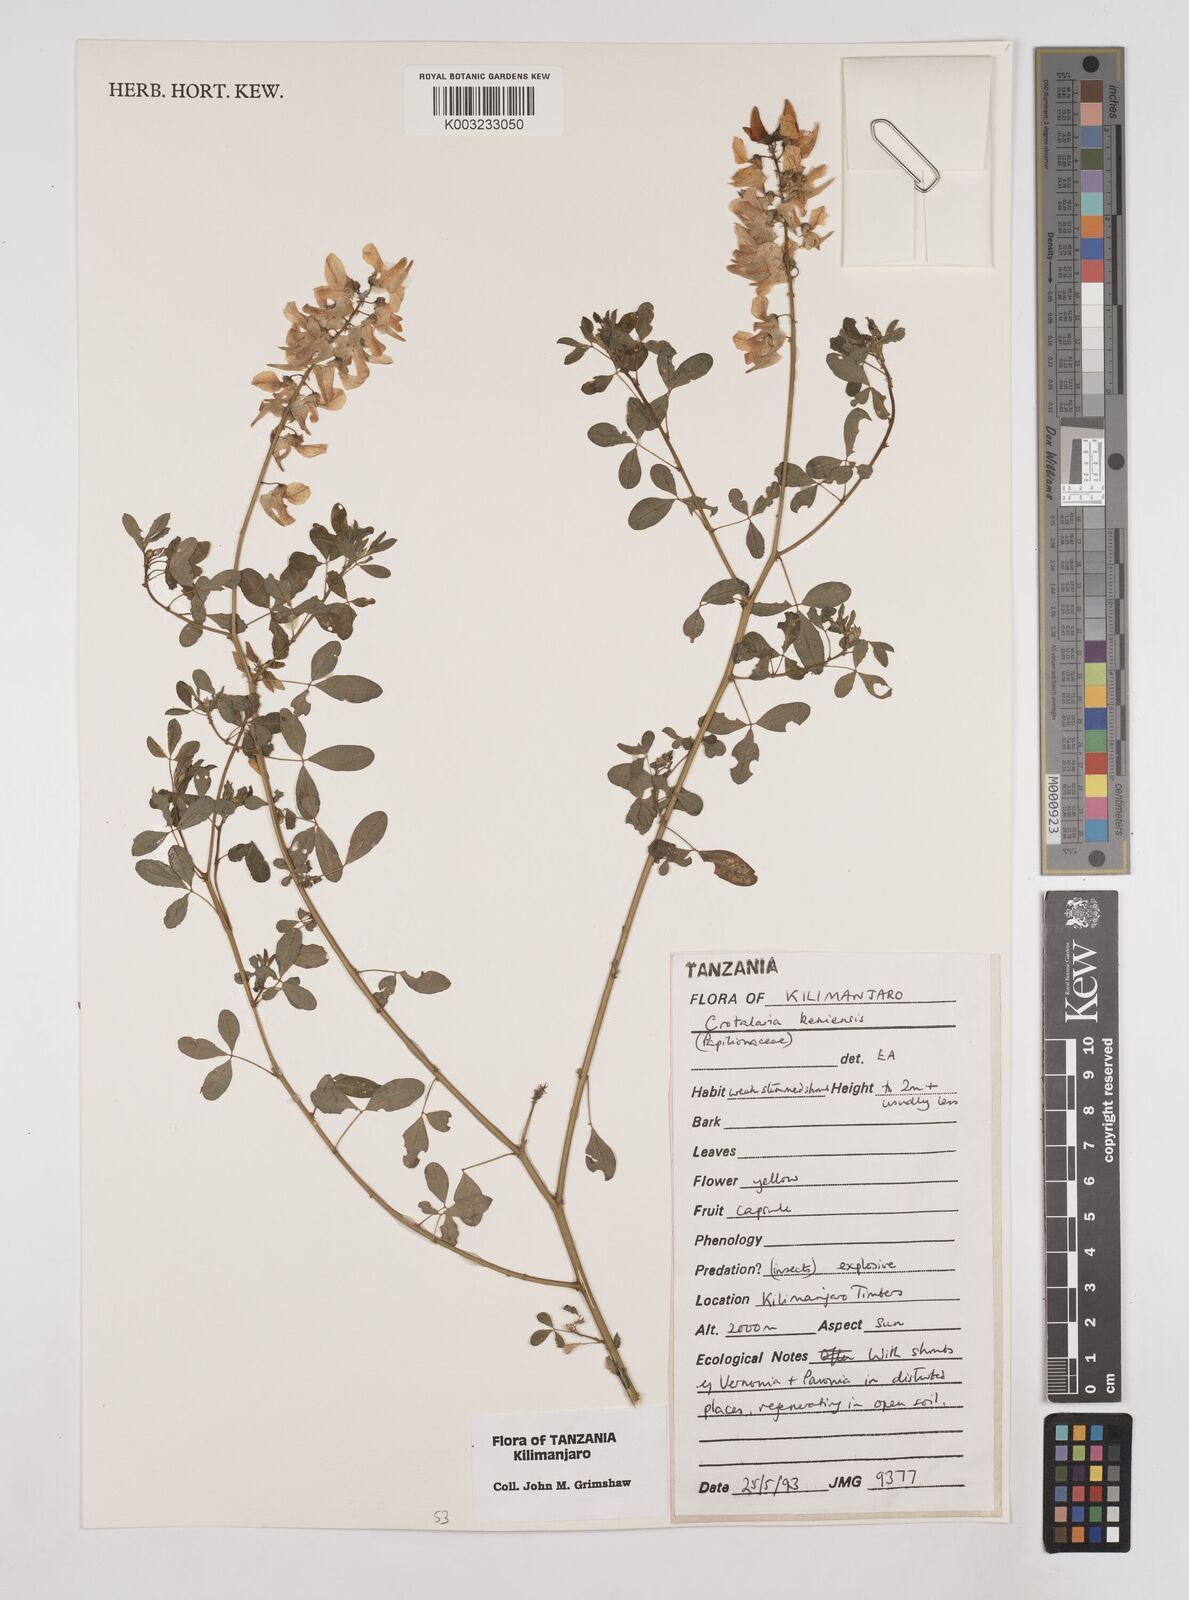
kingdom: Plantae
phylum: Tracheophyta
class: Magnoliopsida
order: Fabales
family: Fabaceae
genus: Crotalaria
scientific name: Crotalaria keniensis
